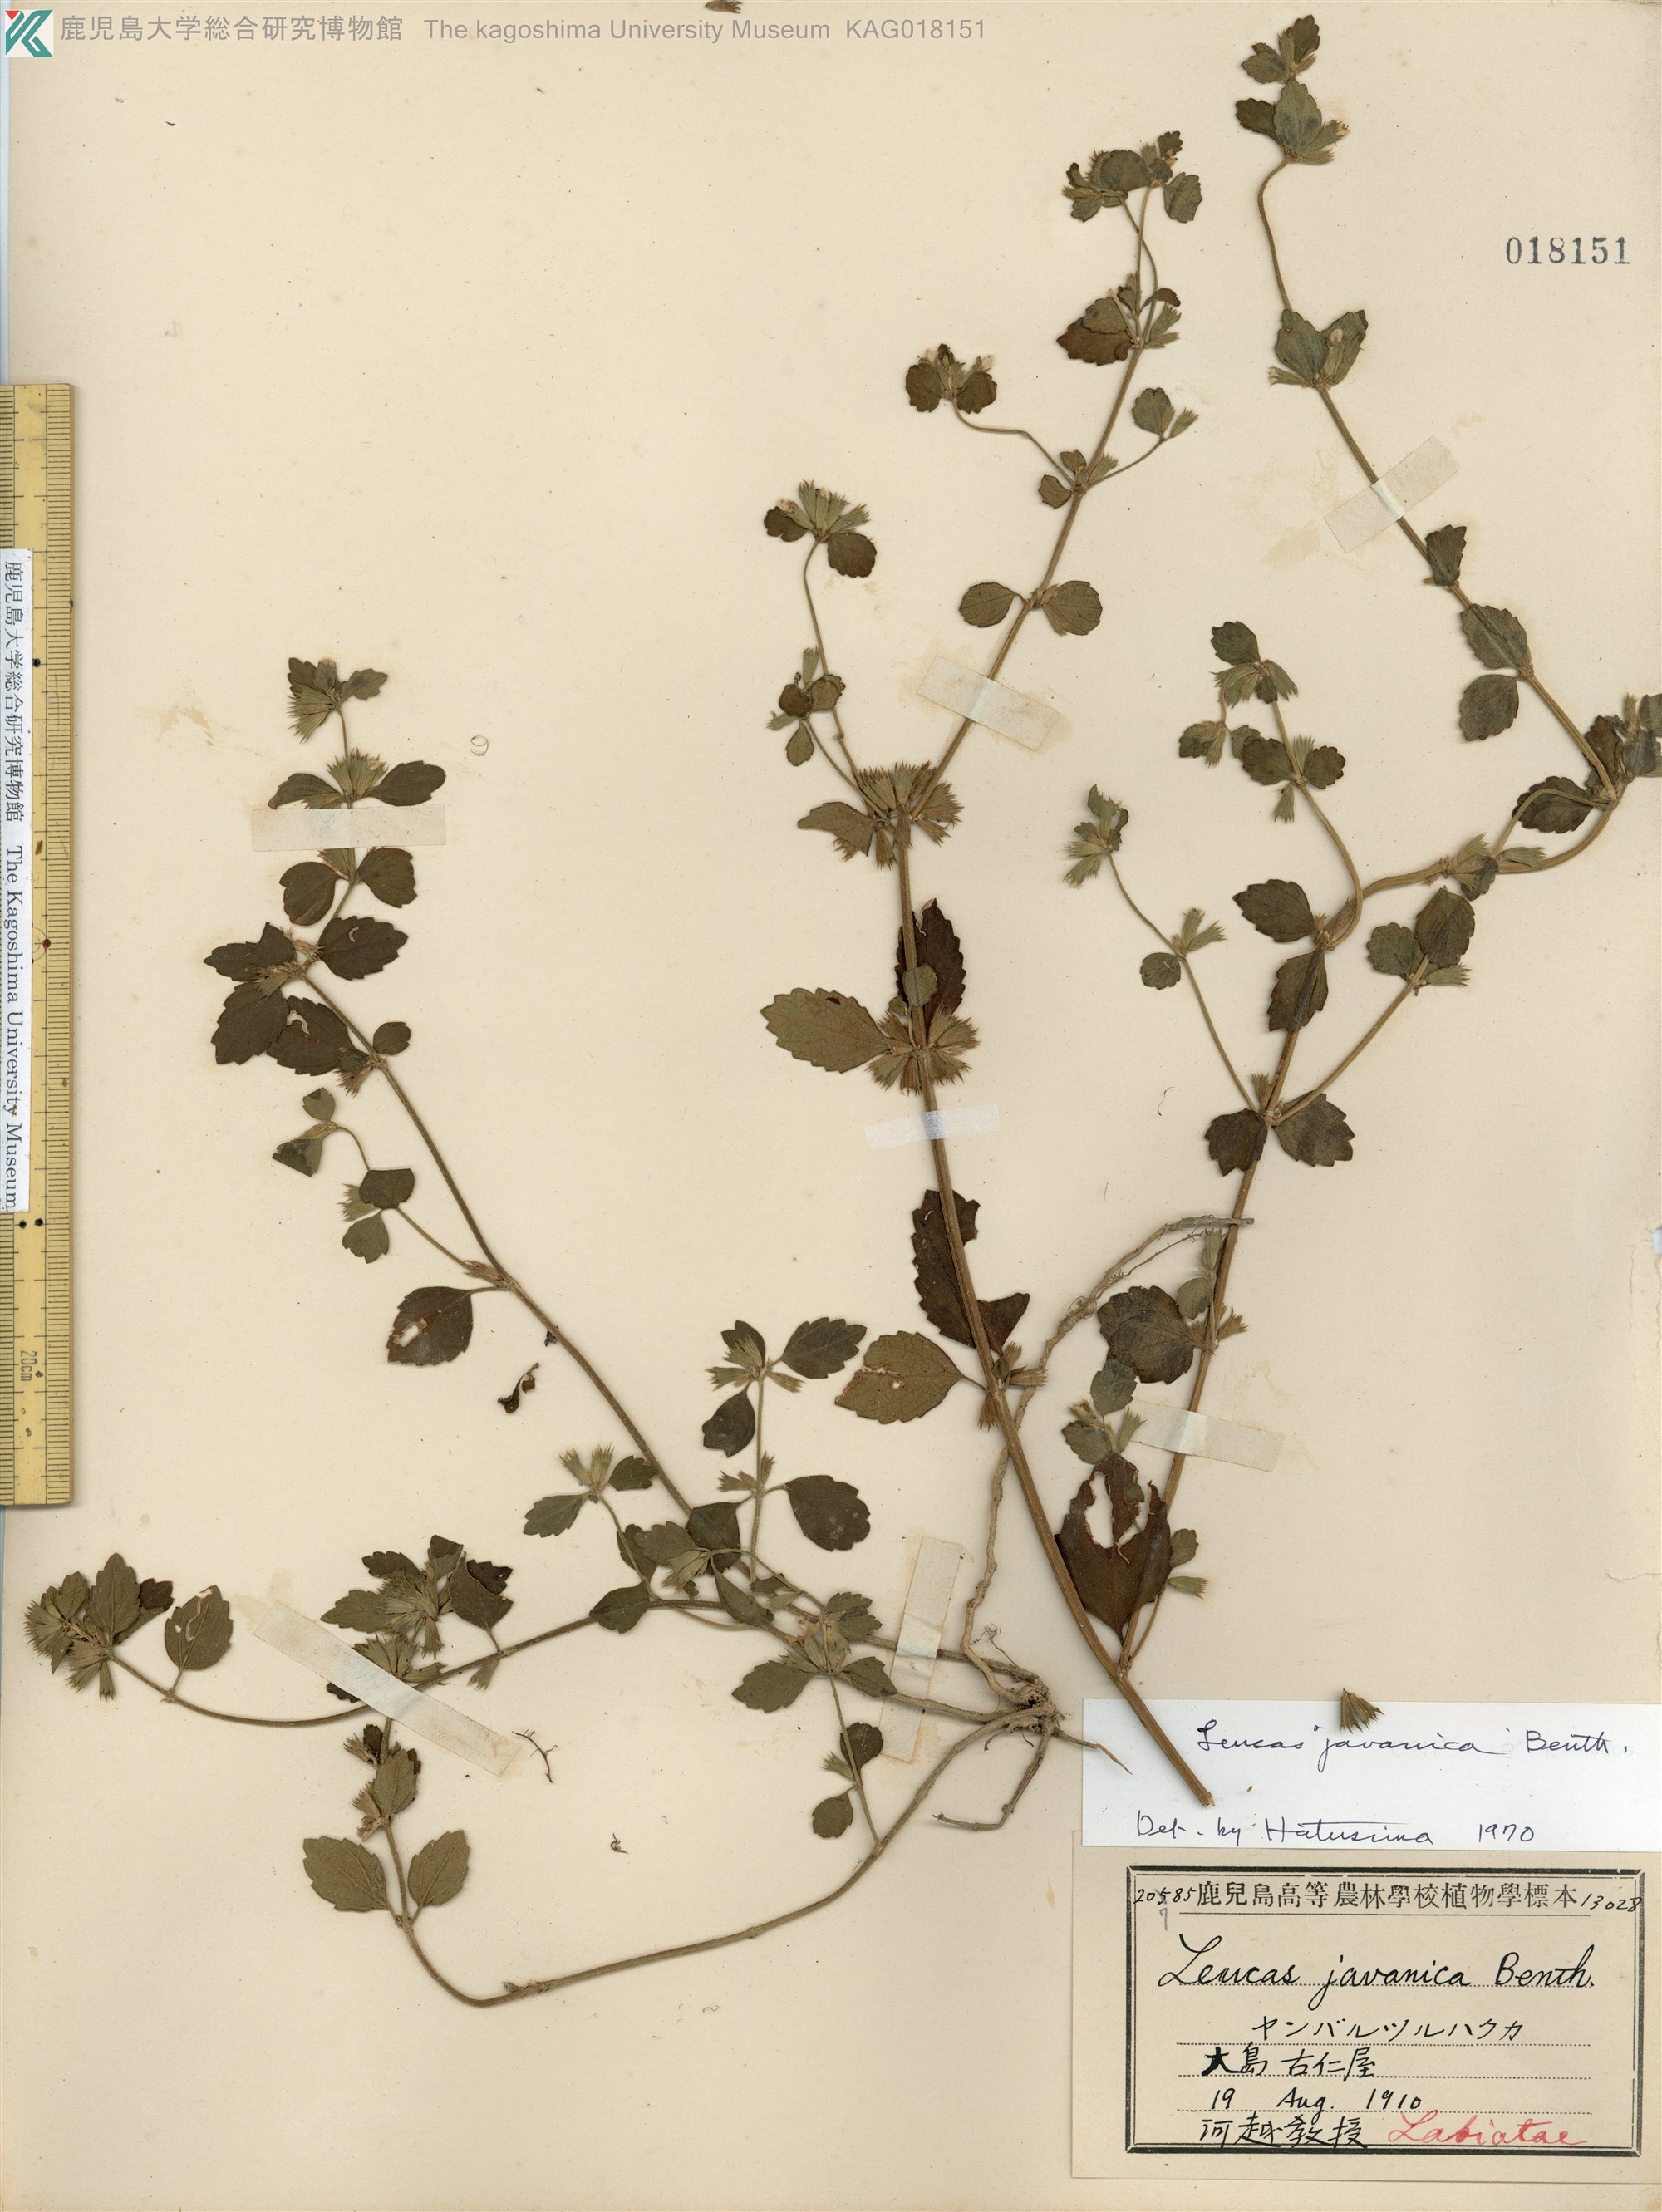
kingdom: Plantae
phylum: Tracheophyta
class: Magnoliopsida
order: Lamiales
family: Lamiaceae
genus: Leucas
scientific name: Leucas chinensis
